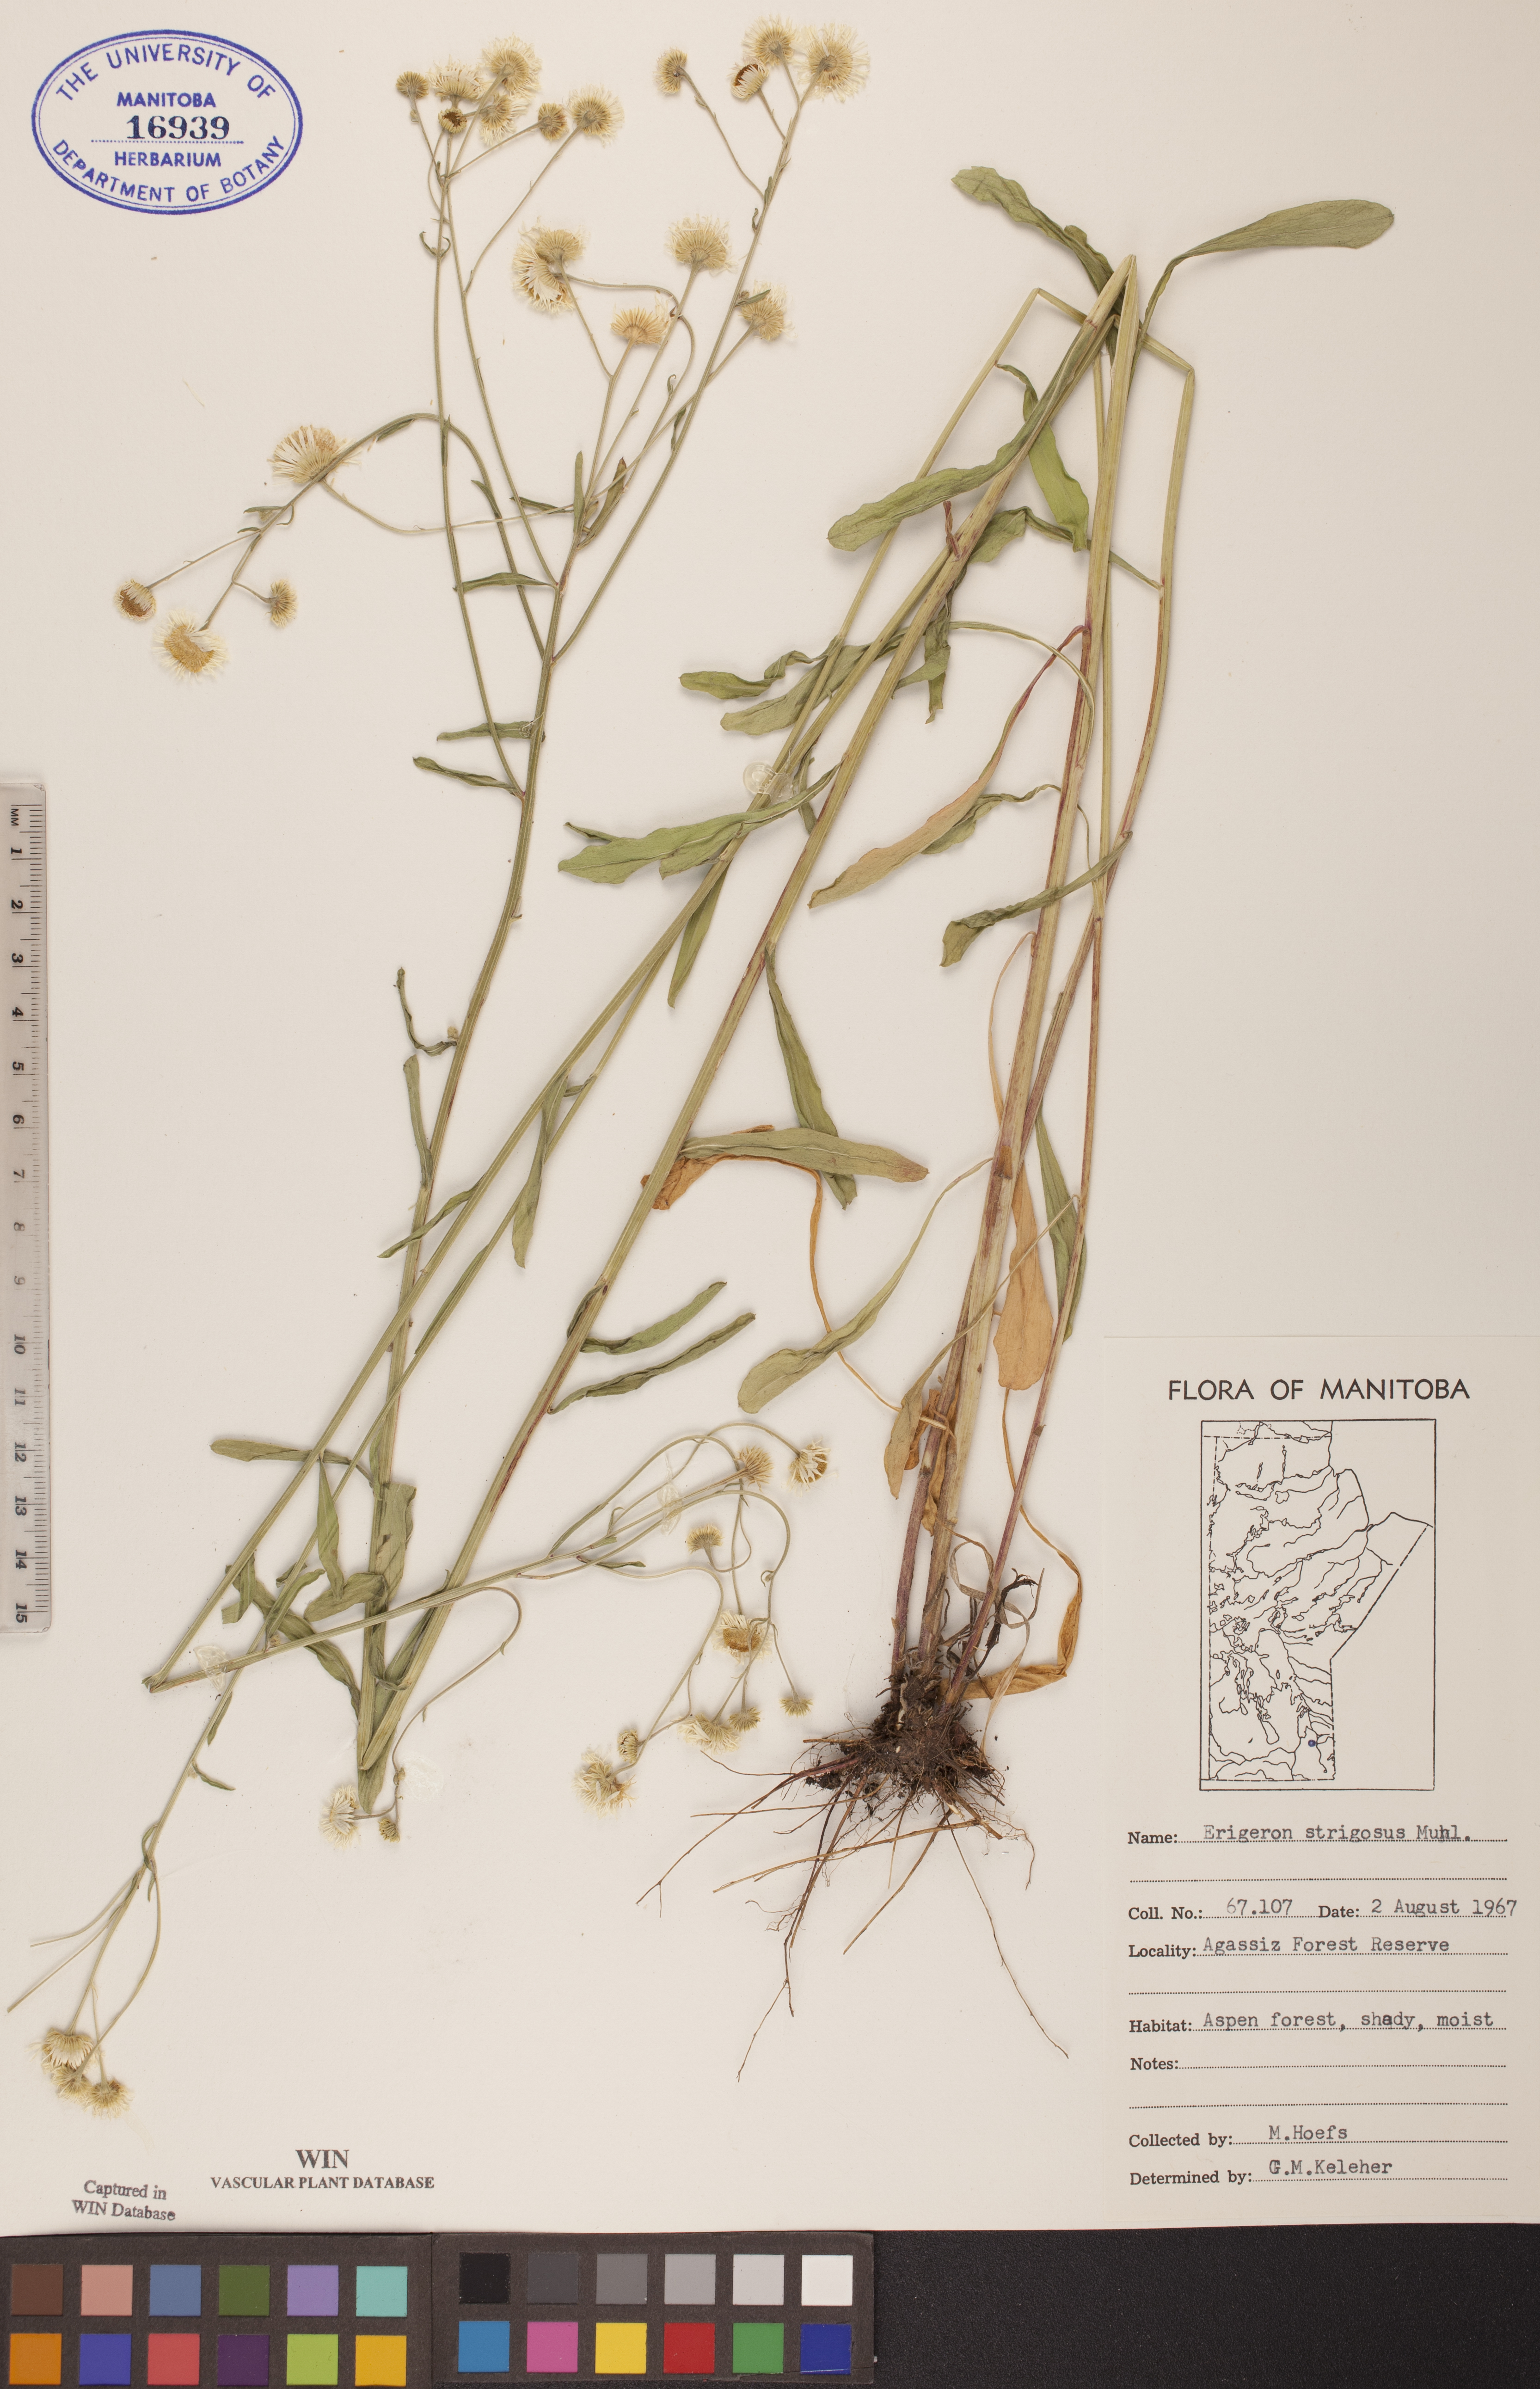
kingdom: Plantae
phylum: Tracheophyta
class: Magnoliopsida
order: Asterales
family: Asteraceae
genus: Erigeron
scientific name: Erigeron strigosus
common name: Common eastern fleabane
